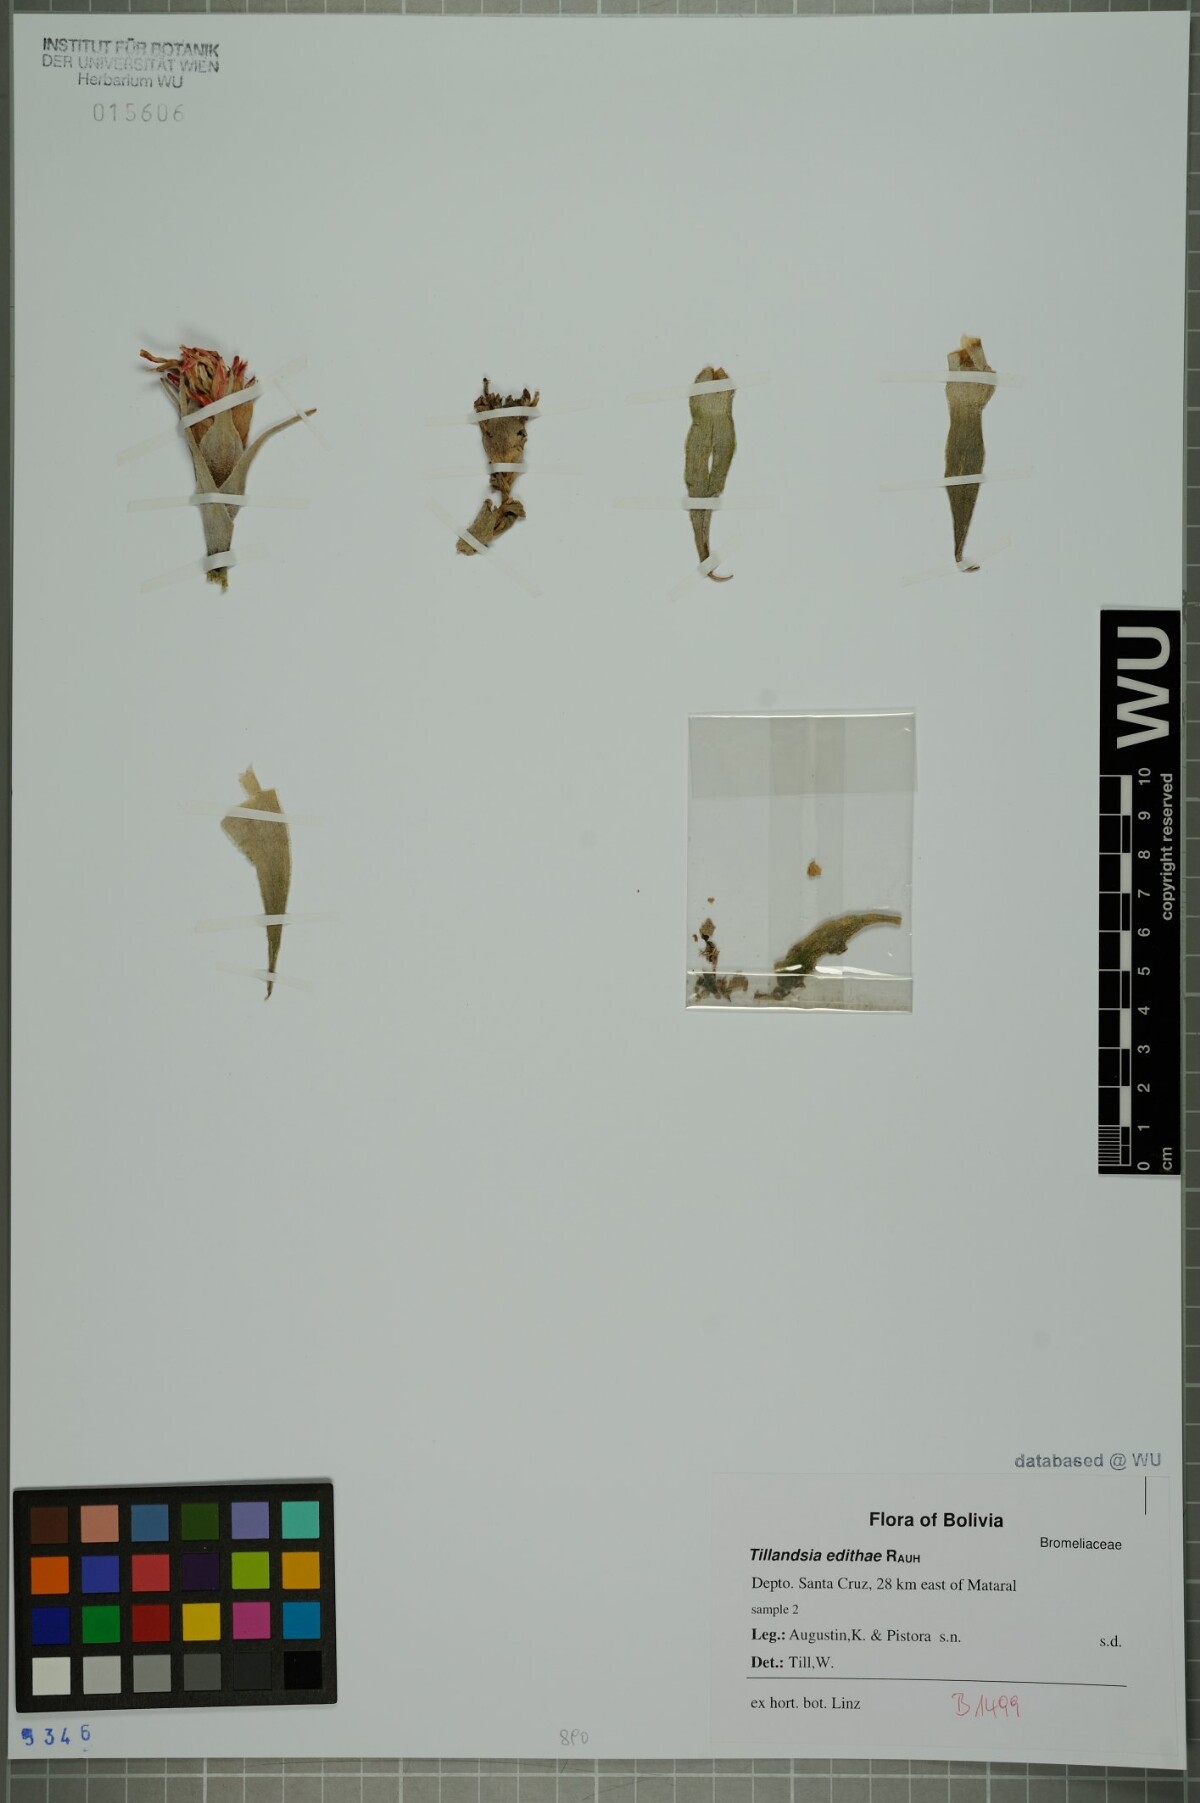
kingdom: Plantae
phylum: Tracheophyta
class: Liliopsida
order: Poales
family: Bromeliaceae
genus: Tillandsia
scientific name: Tillandsia edithae
